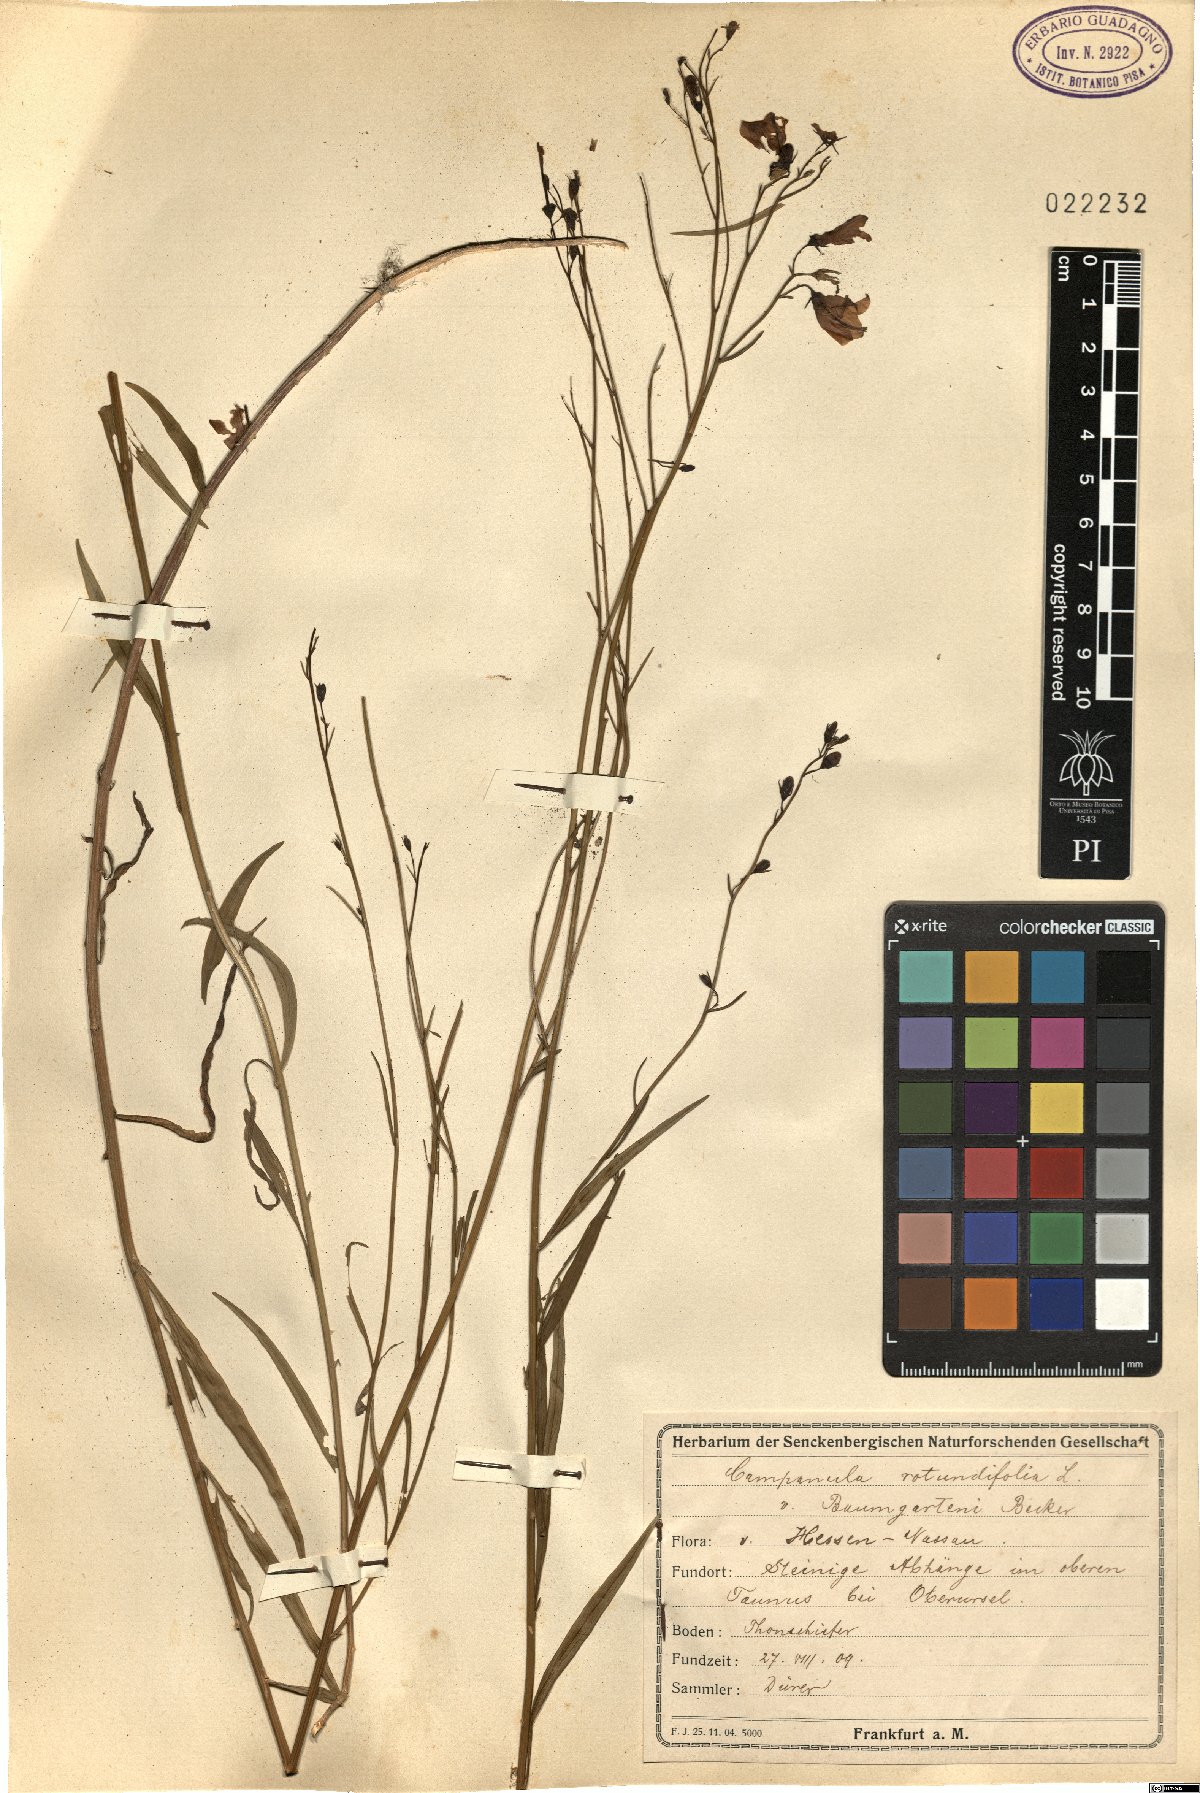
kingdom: Plantae
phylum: Tracheophyta
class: Magnoliopsida
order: Asterales
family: Campanulaceae
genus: Campanula
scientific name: Campanula baumgartenii
